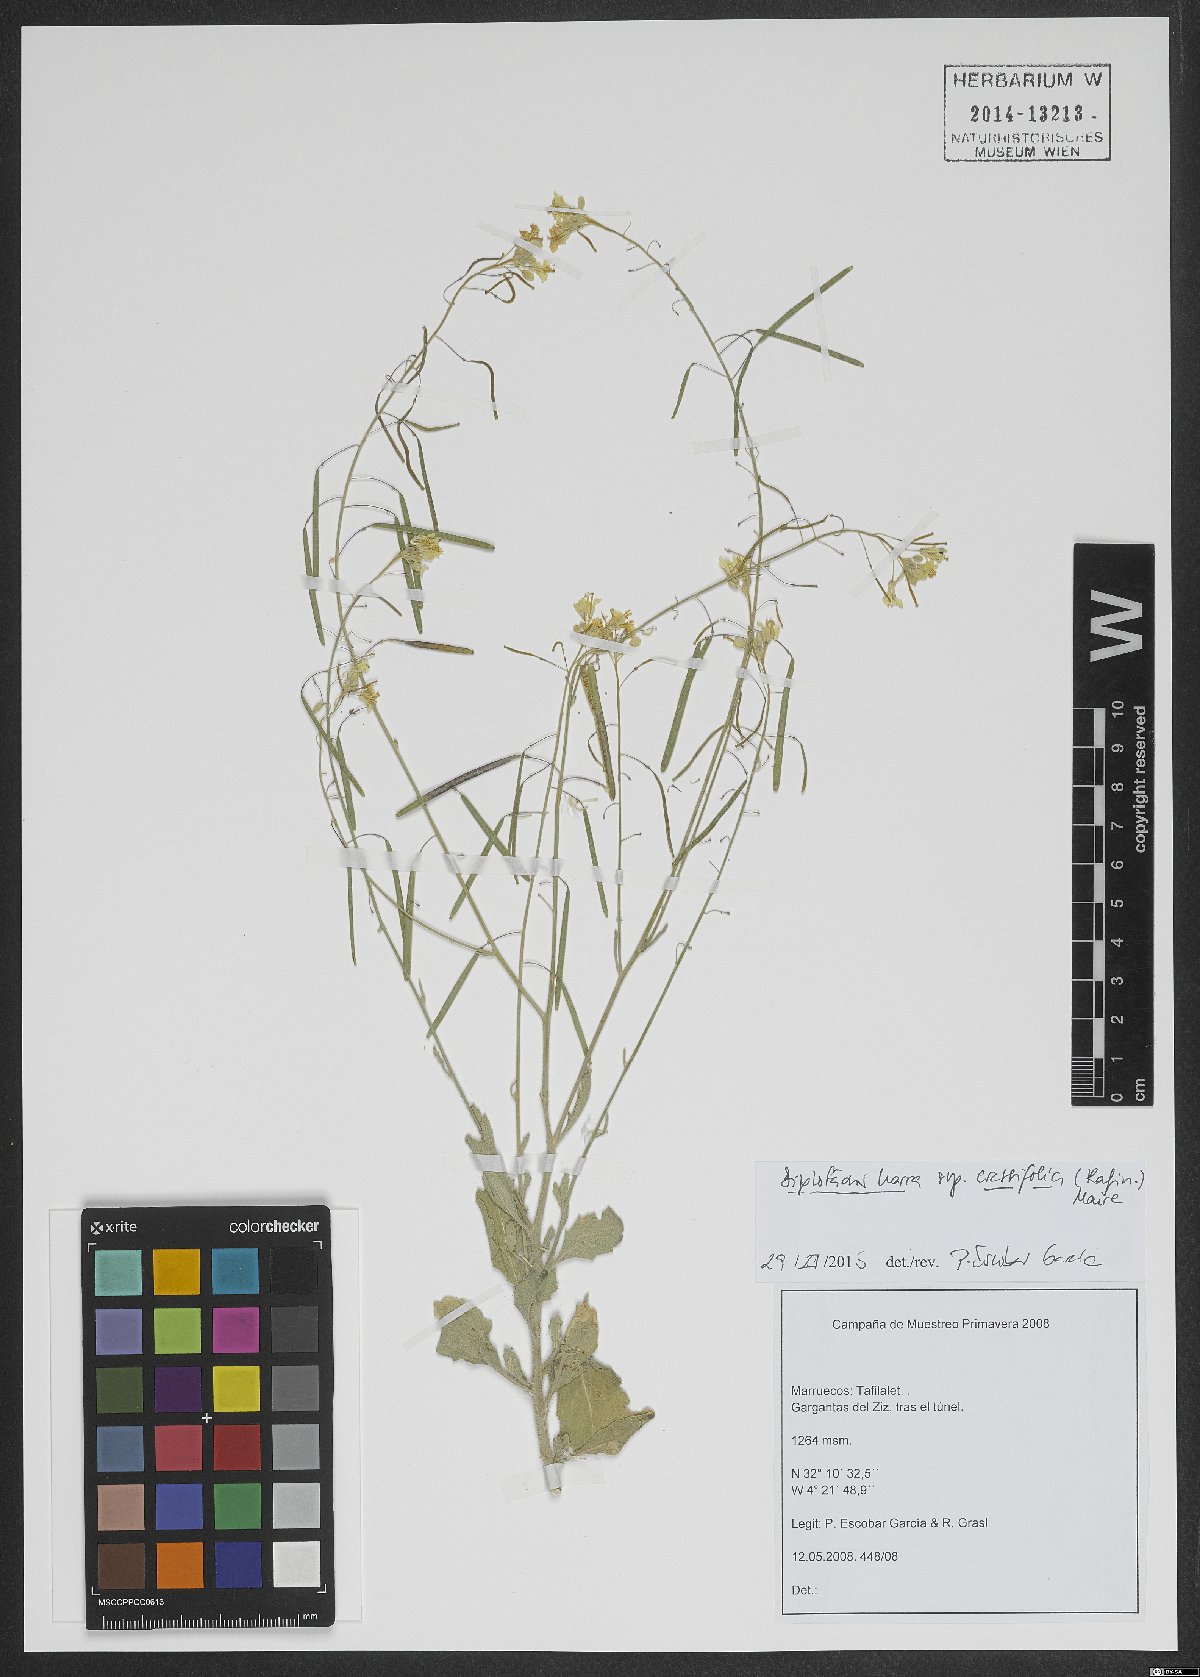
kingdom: Plantae
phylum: Tracheophyta
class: Magnoliopsida
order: Brassicales
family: Brassicaceae
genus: Diplotaxis
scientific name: Diplotaxis harra
